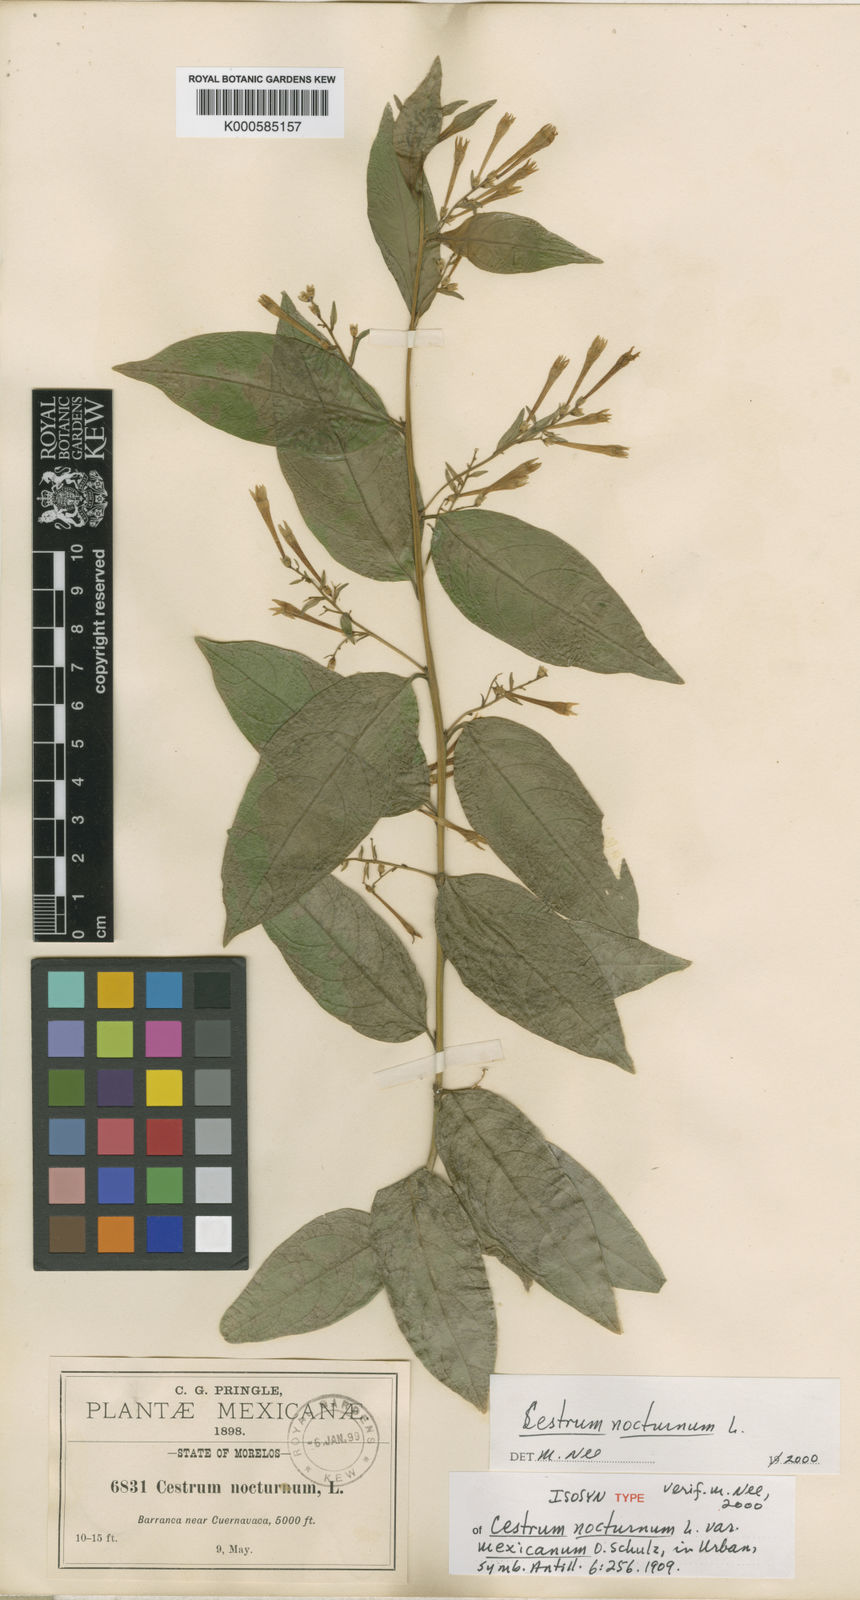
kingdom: Plantae
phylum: Tracheophyta
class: Magnoliopsida
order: Solanales
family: Solanaceae
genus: Cestrum
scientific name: Cestrum nocturnum
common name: Night jessamine
